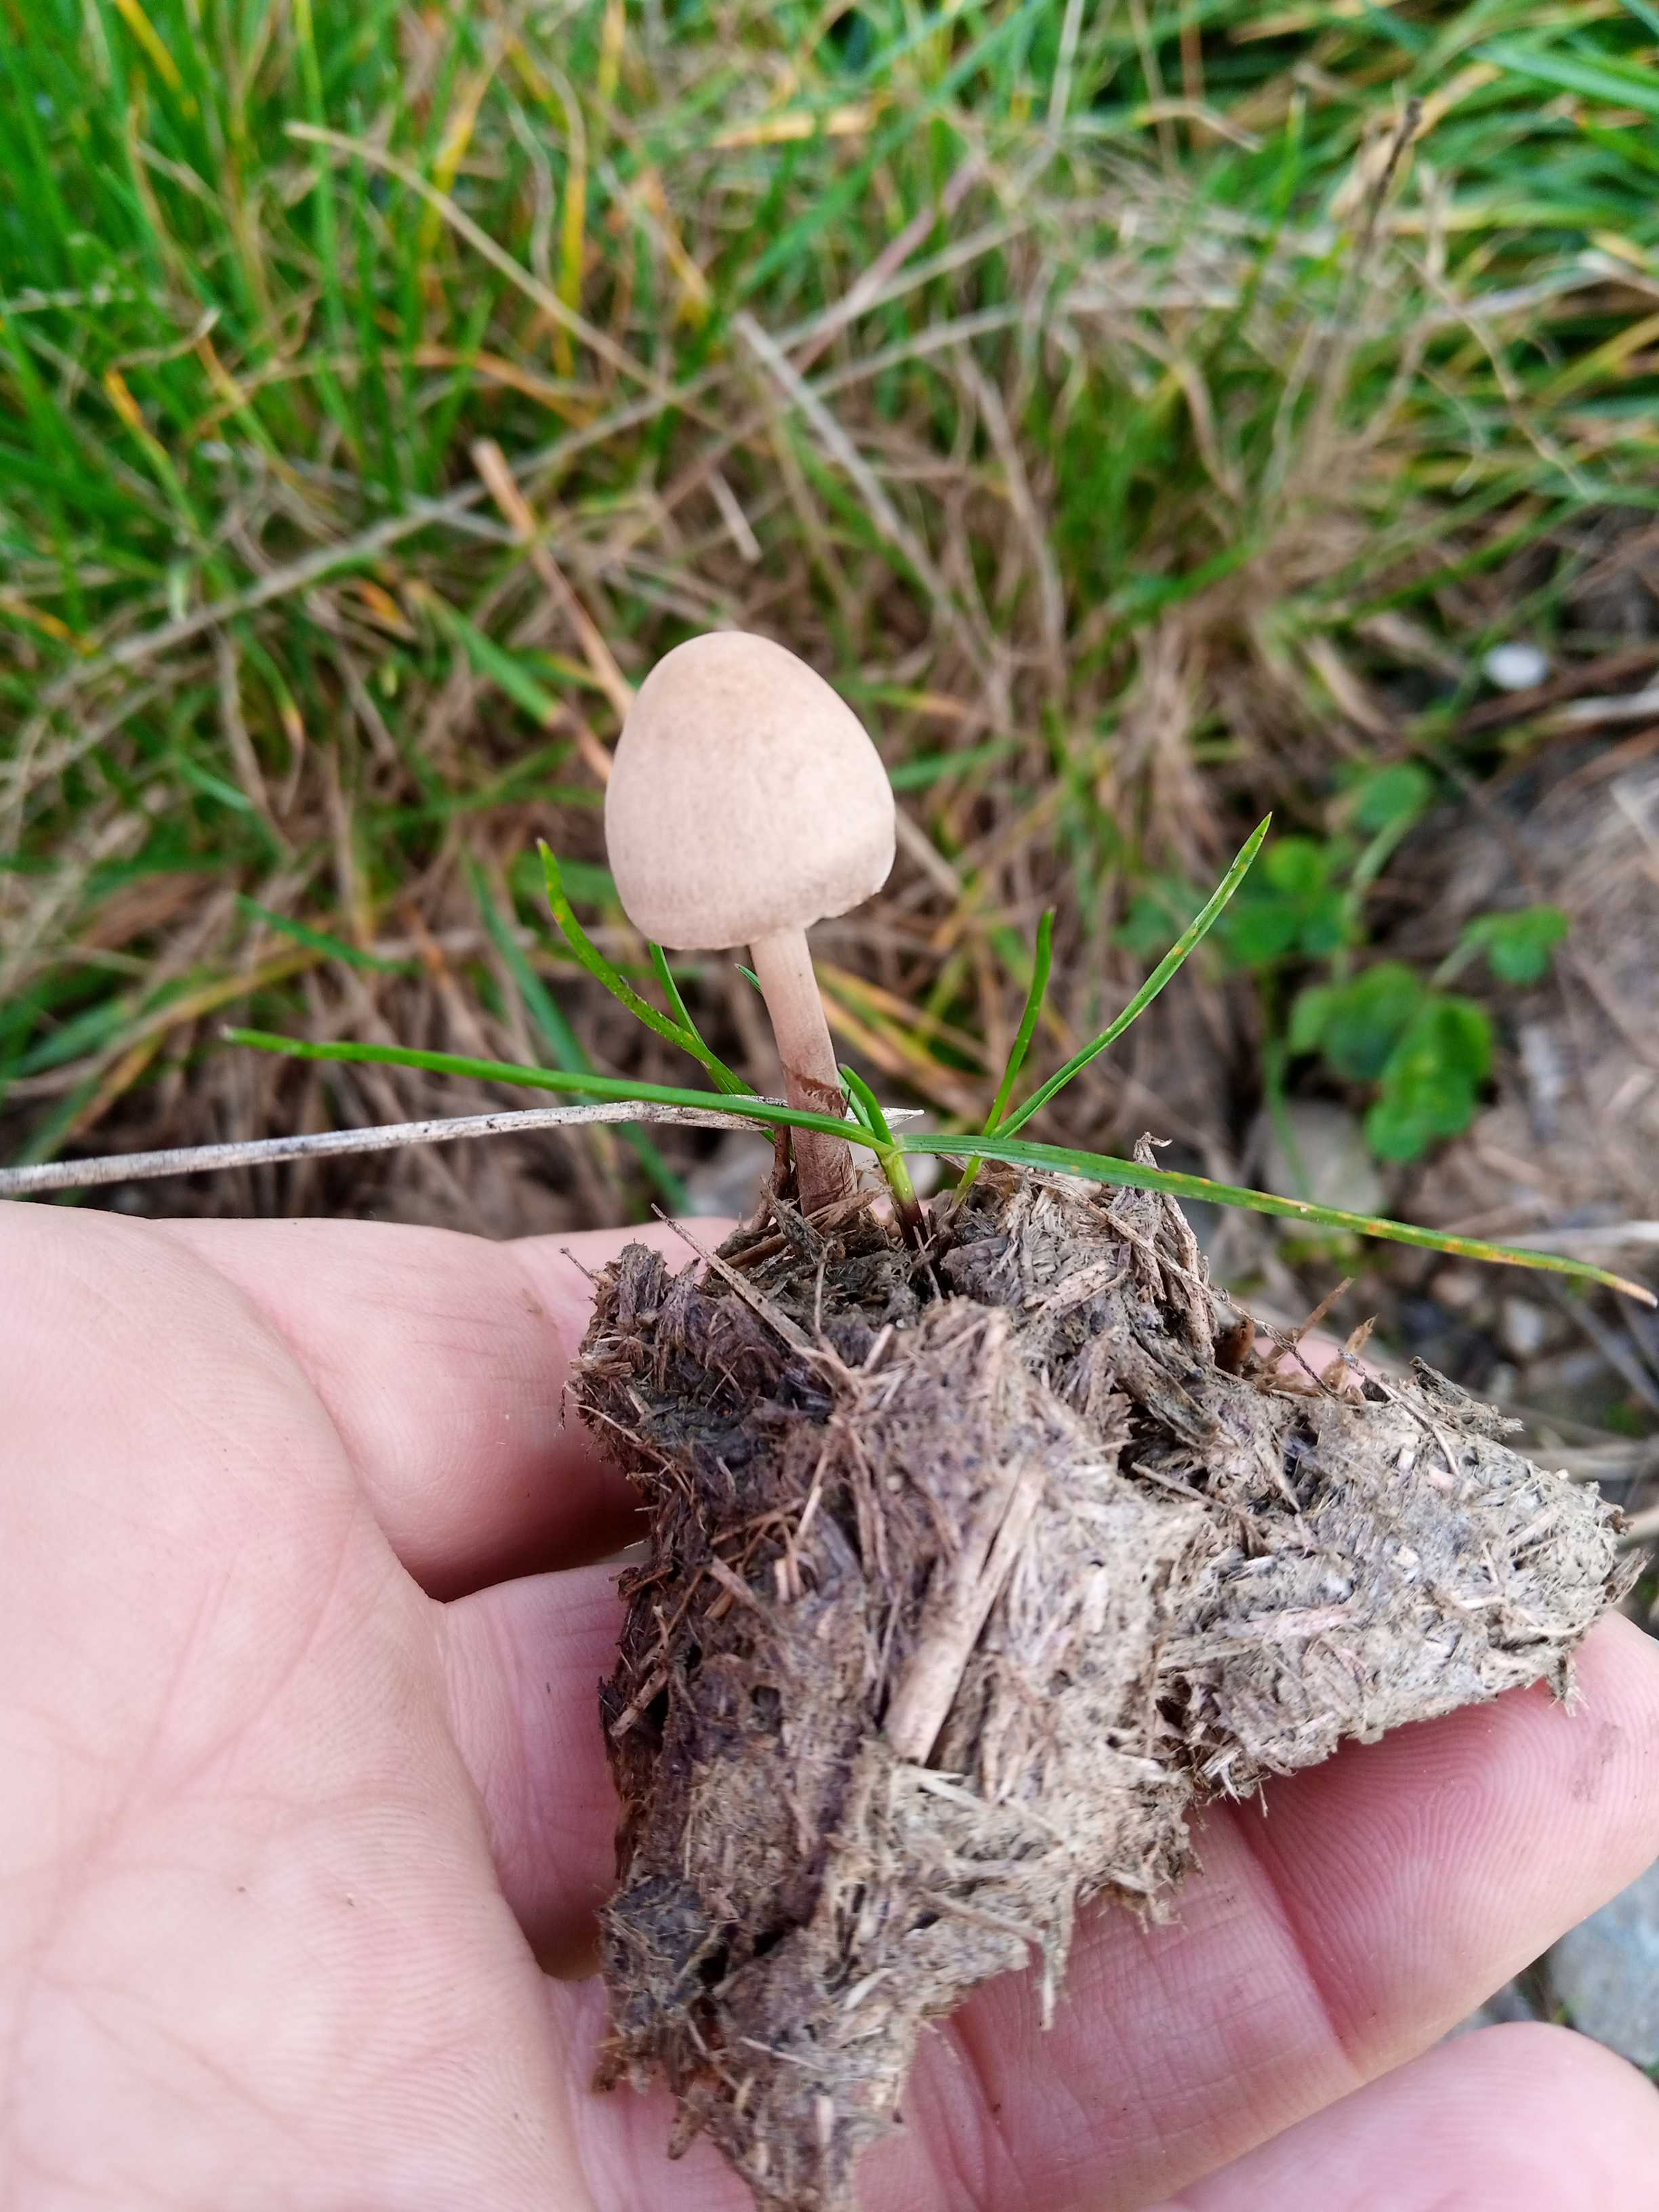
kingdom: Fungi
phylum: Basidiomycota
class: Agaricomycetes
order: Agaricales
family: Bolbitiaceae
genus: Panaeolus
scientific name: Panaeolus papilionaceus
